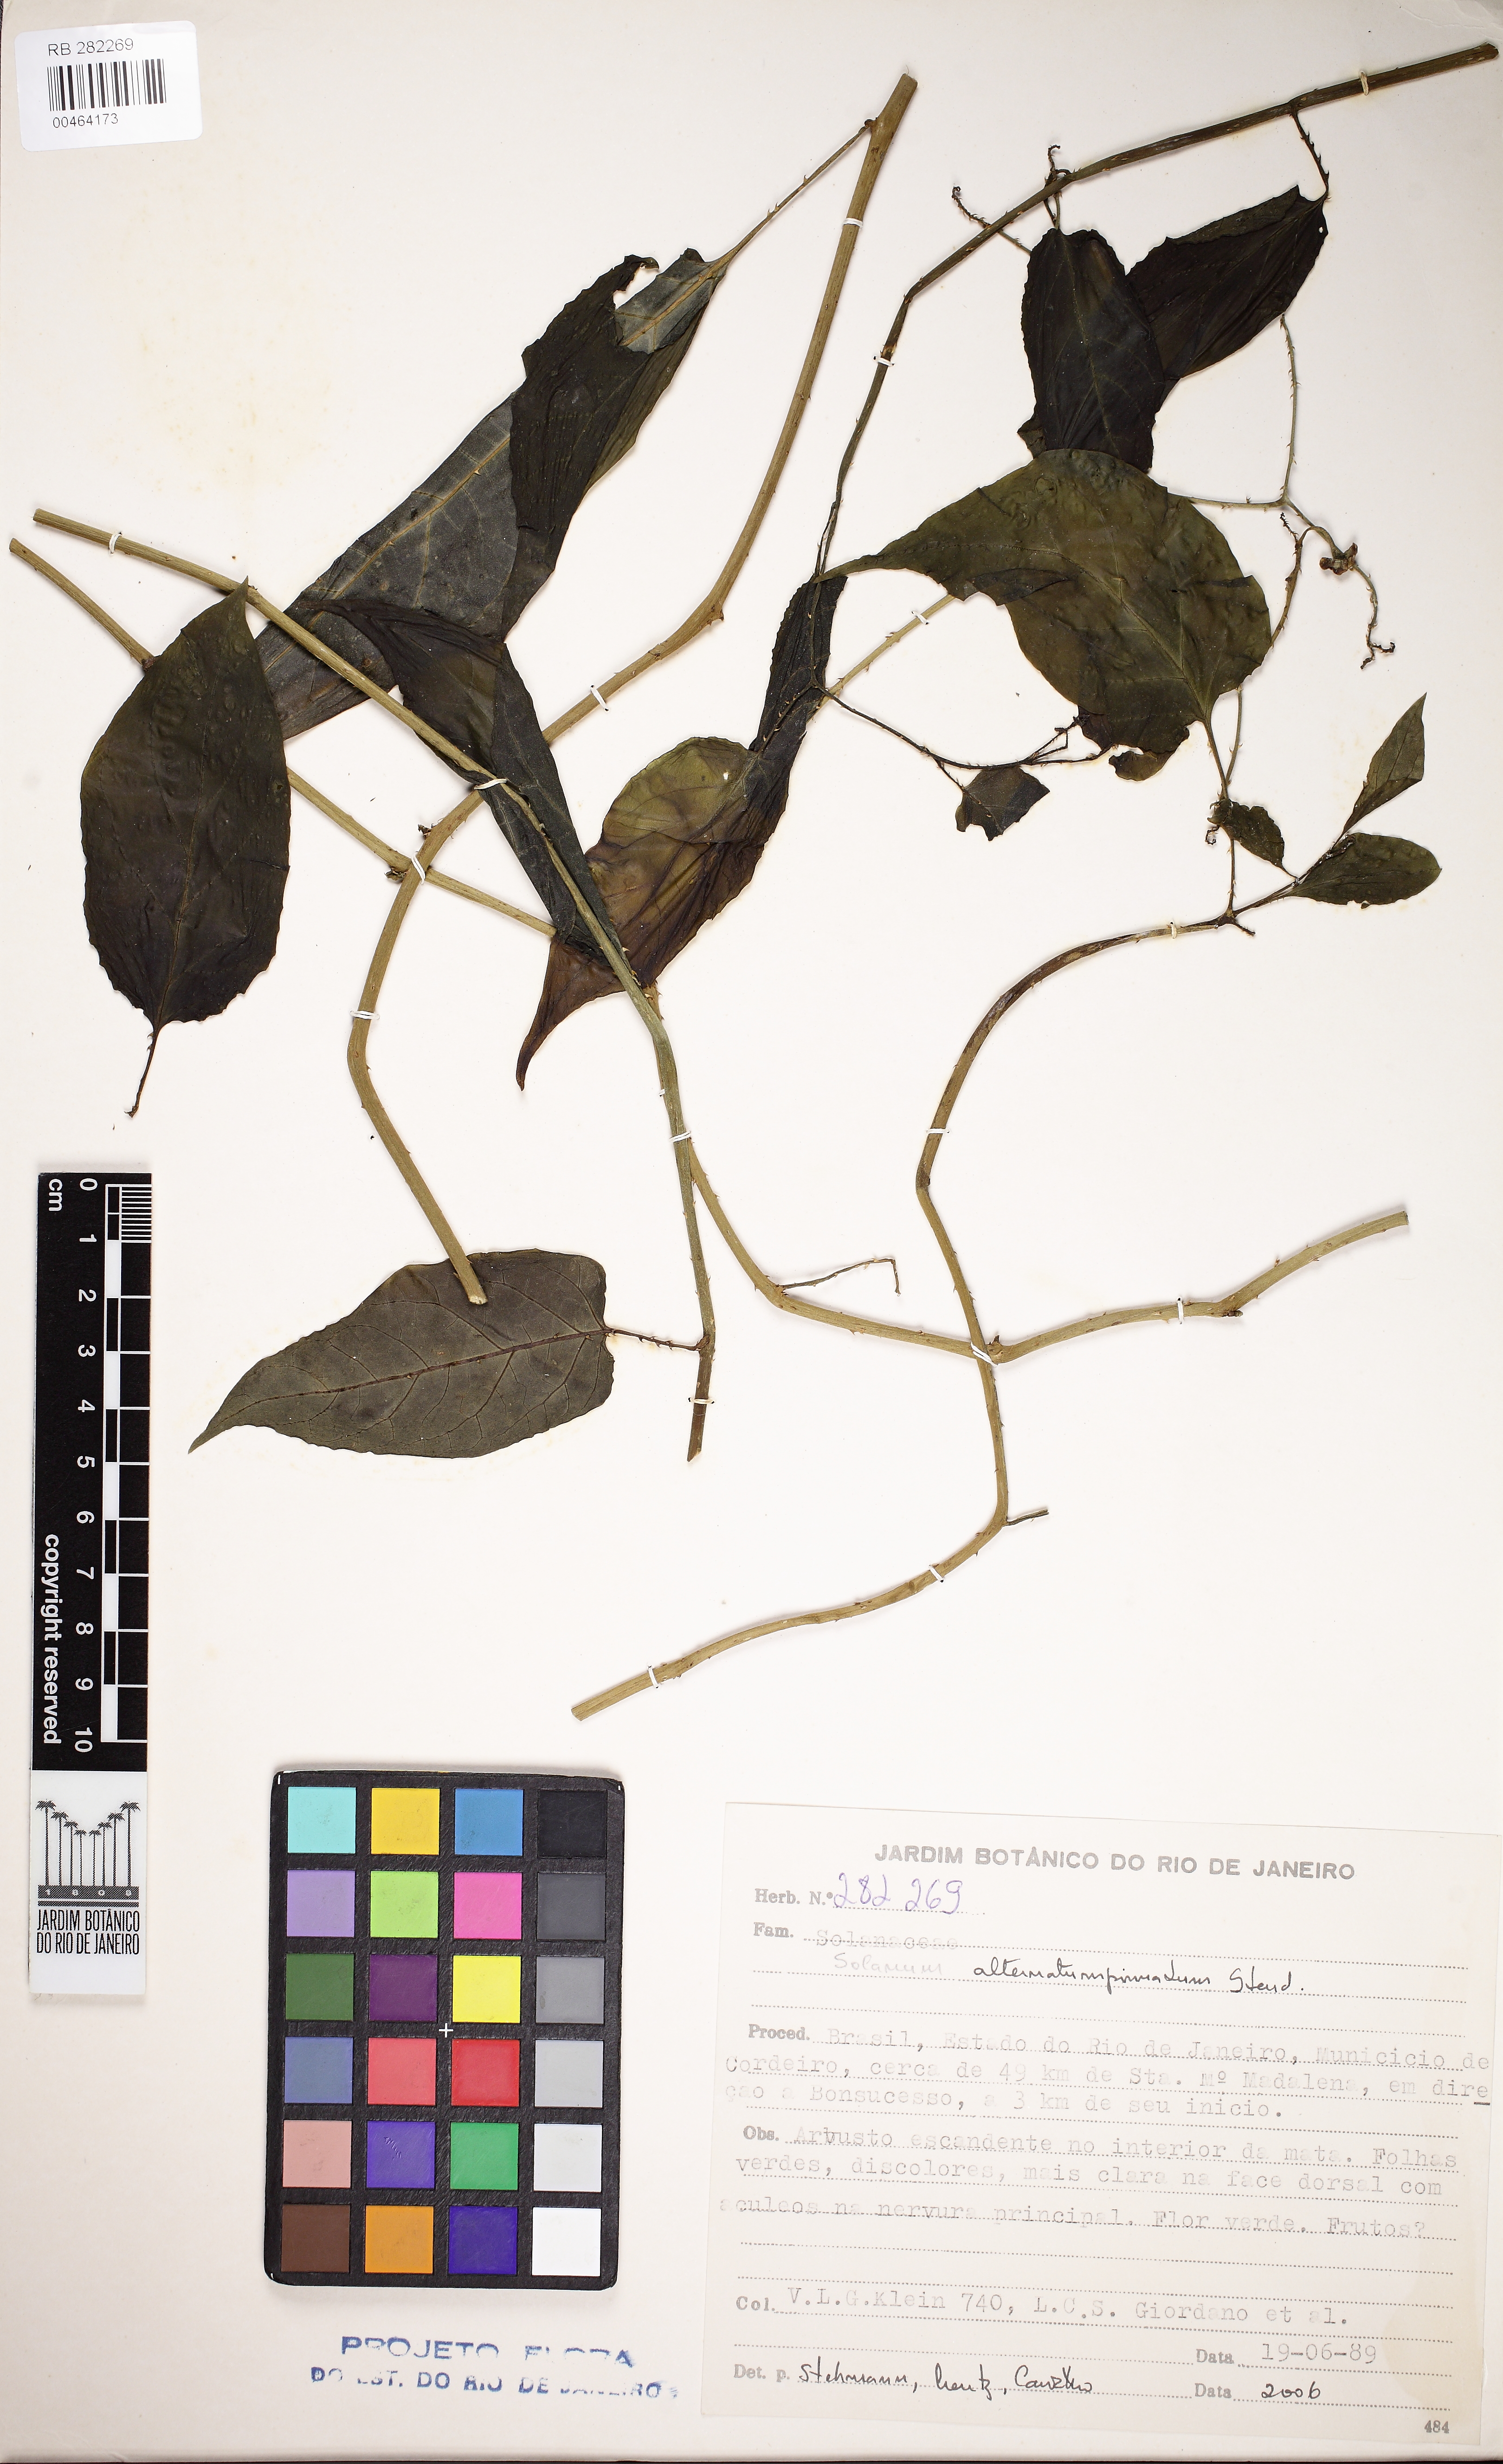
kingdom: Plantae
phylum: Tracheophyta
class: Magnoliopsida
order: Solanales
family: Solanaceae
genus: Solanum
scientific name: Solanum alternatopinnatum
